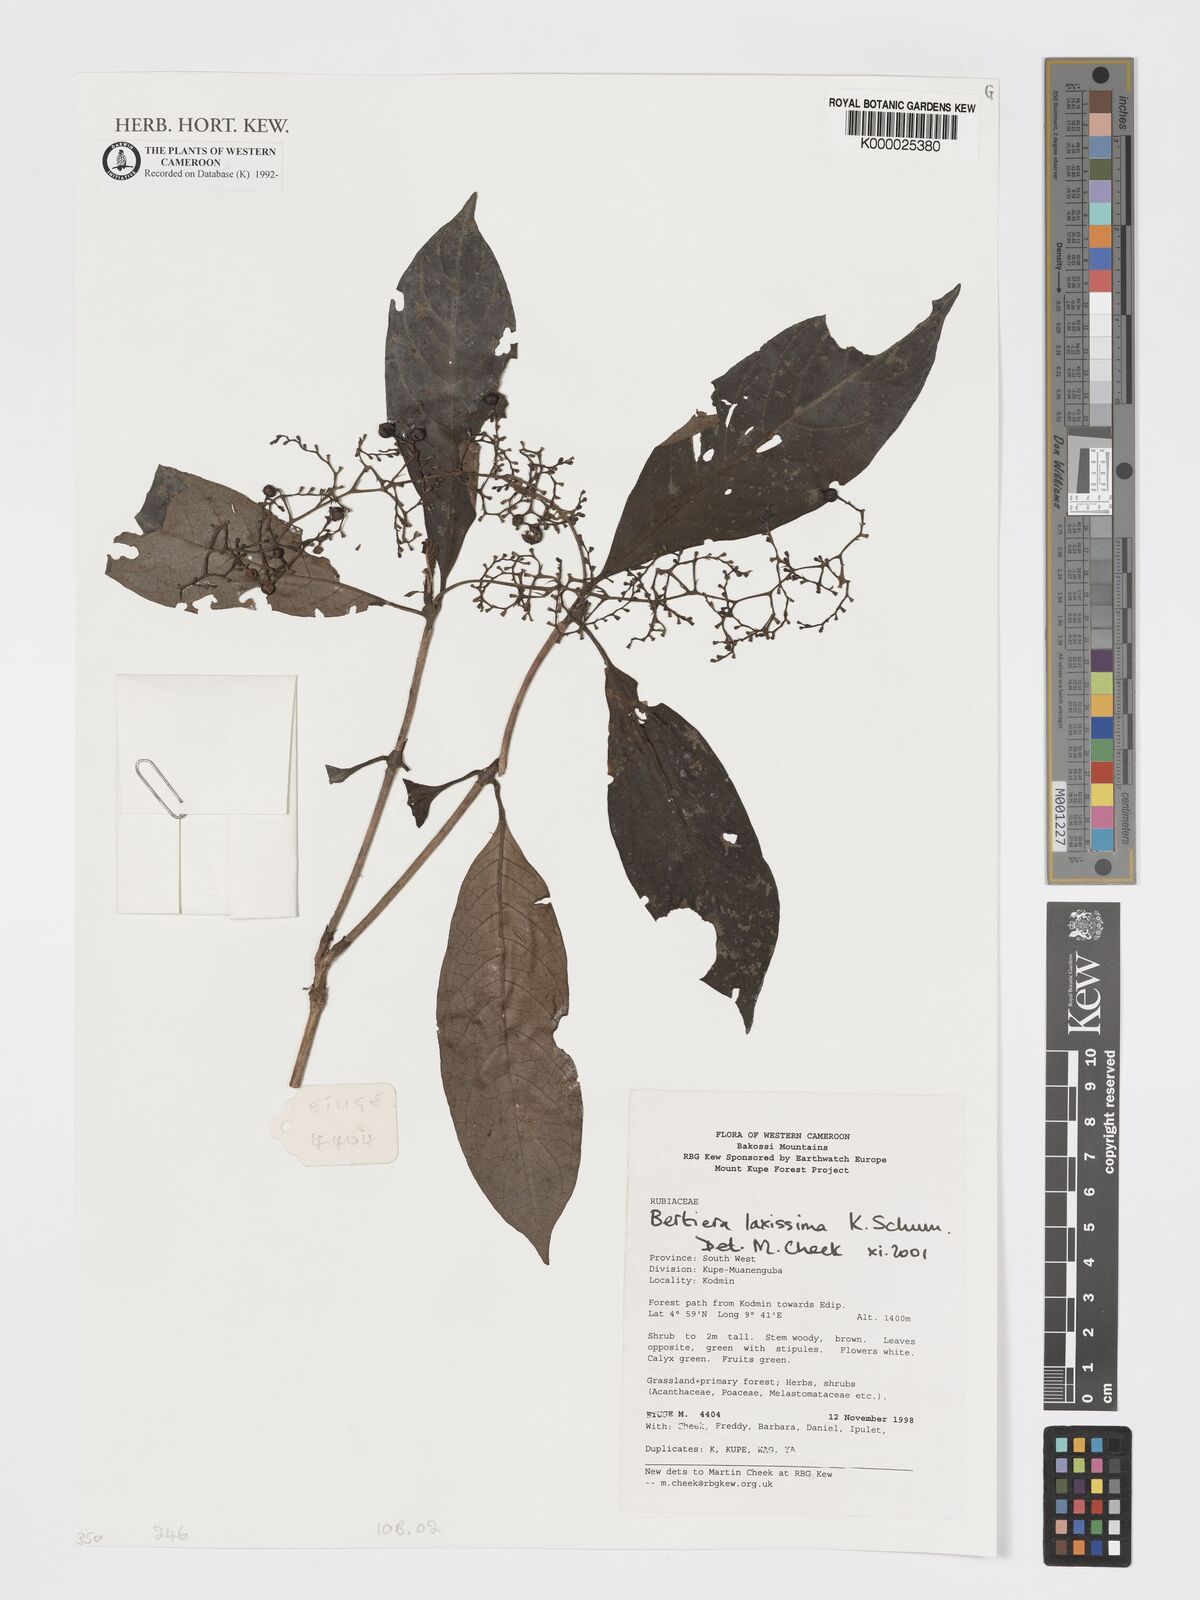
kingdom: Plantae
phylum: Tracheophyta
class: Magnoliopsida
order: Gentianales
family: Rubiaceae
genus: Bertiera
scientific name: Bertiera laxissima
